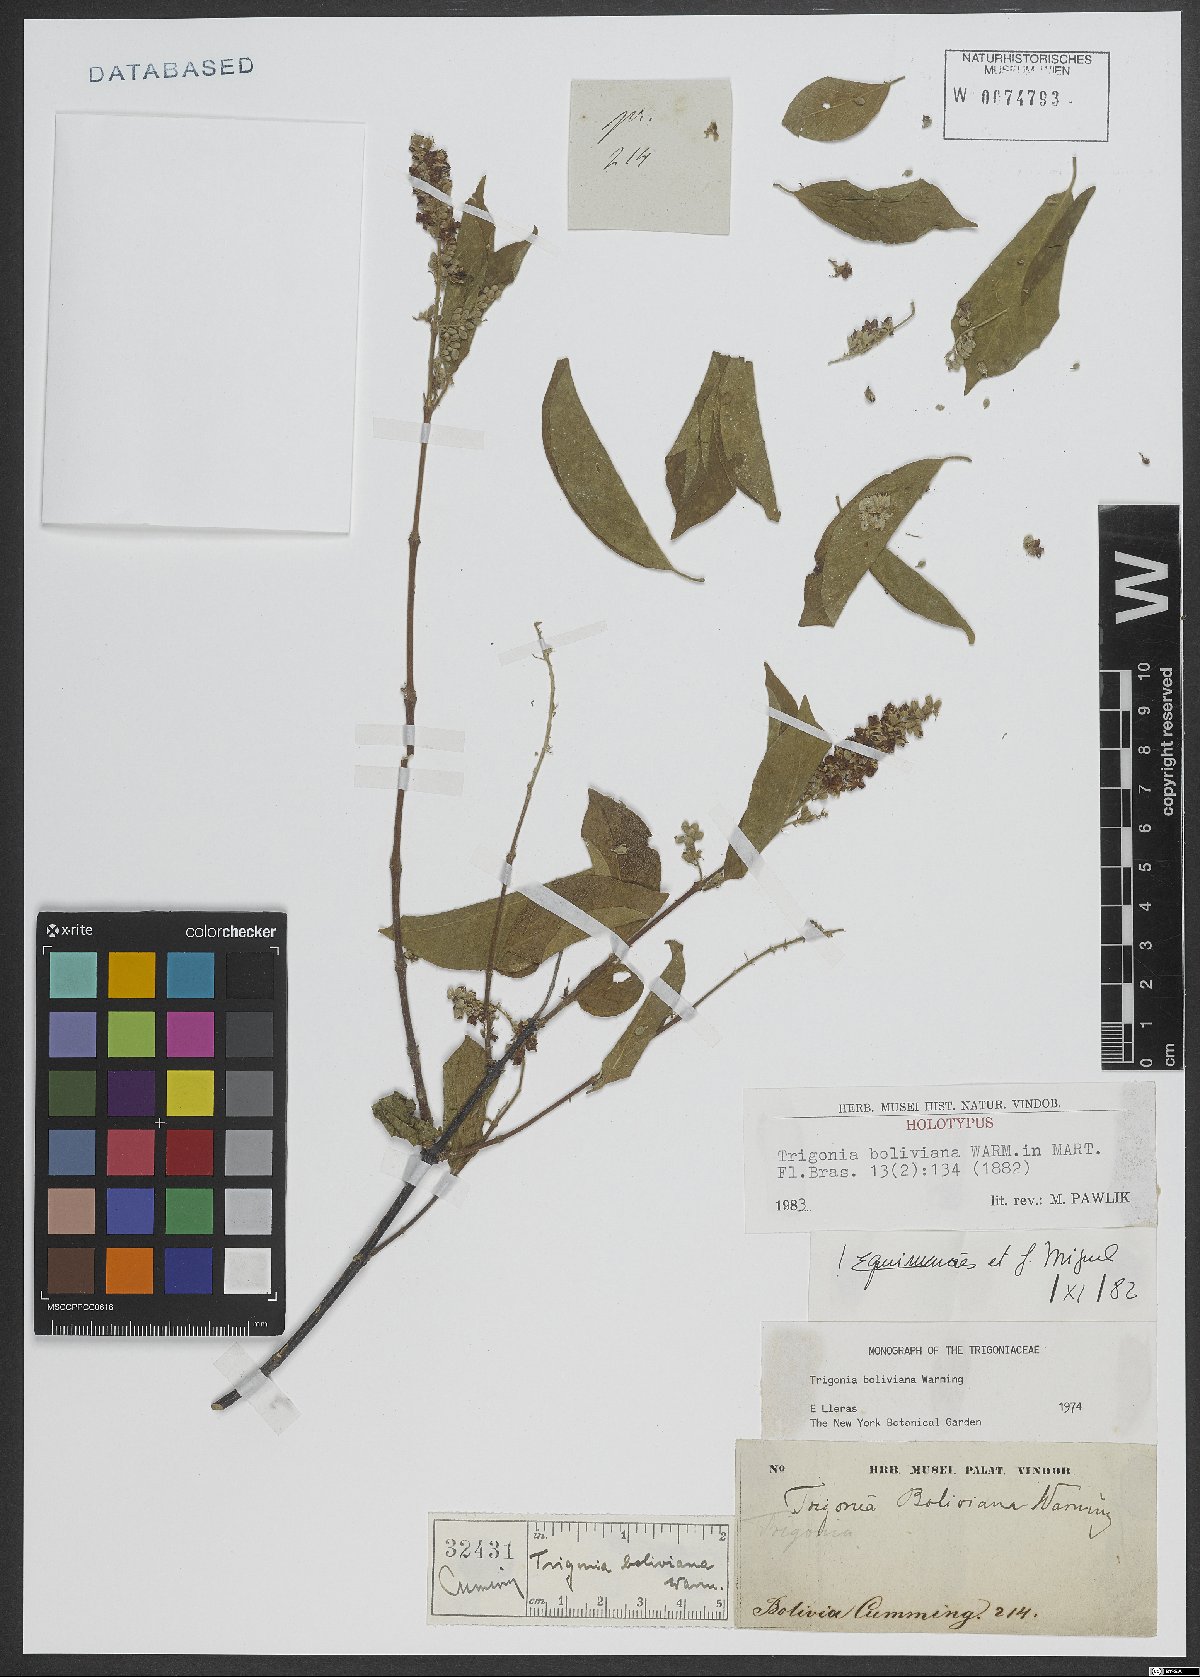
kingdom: Plantae
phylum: Tracheophyta
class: Magnoliopsida
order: Malpighiales
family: Trigoniaceae
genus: Trigonia
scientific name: Trigonia boliviana
